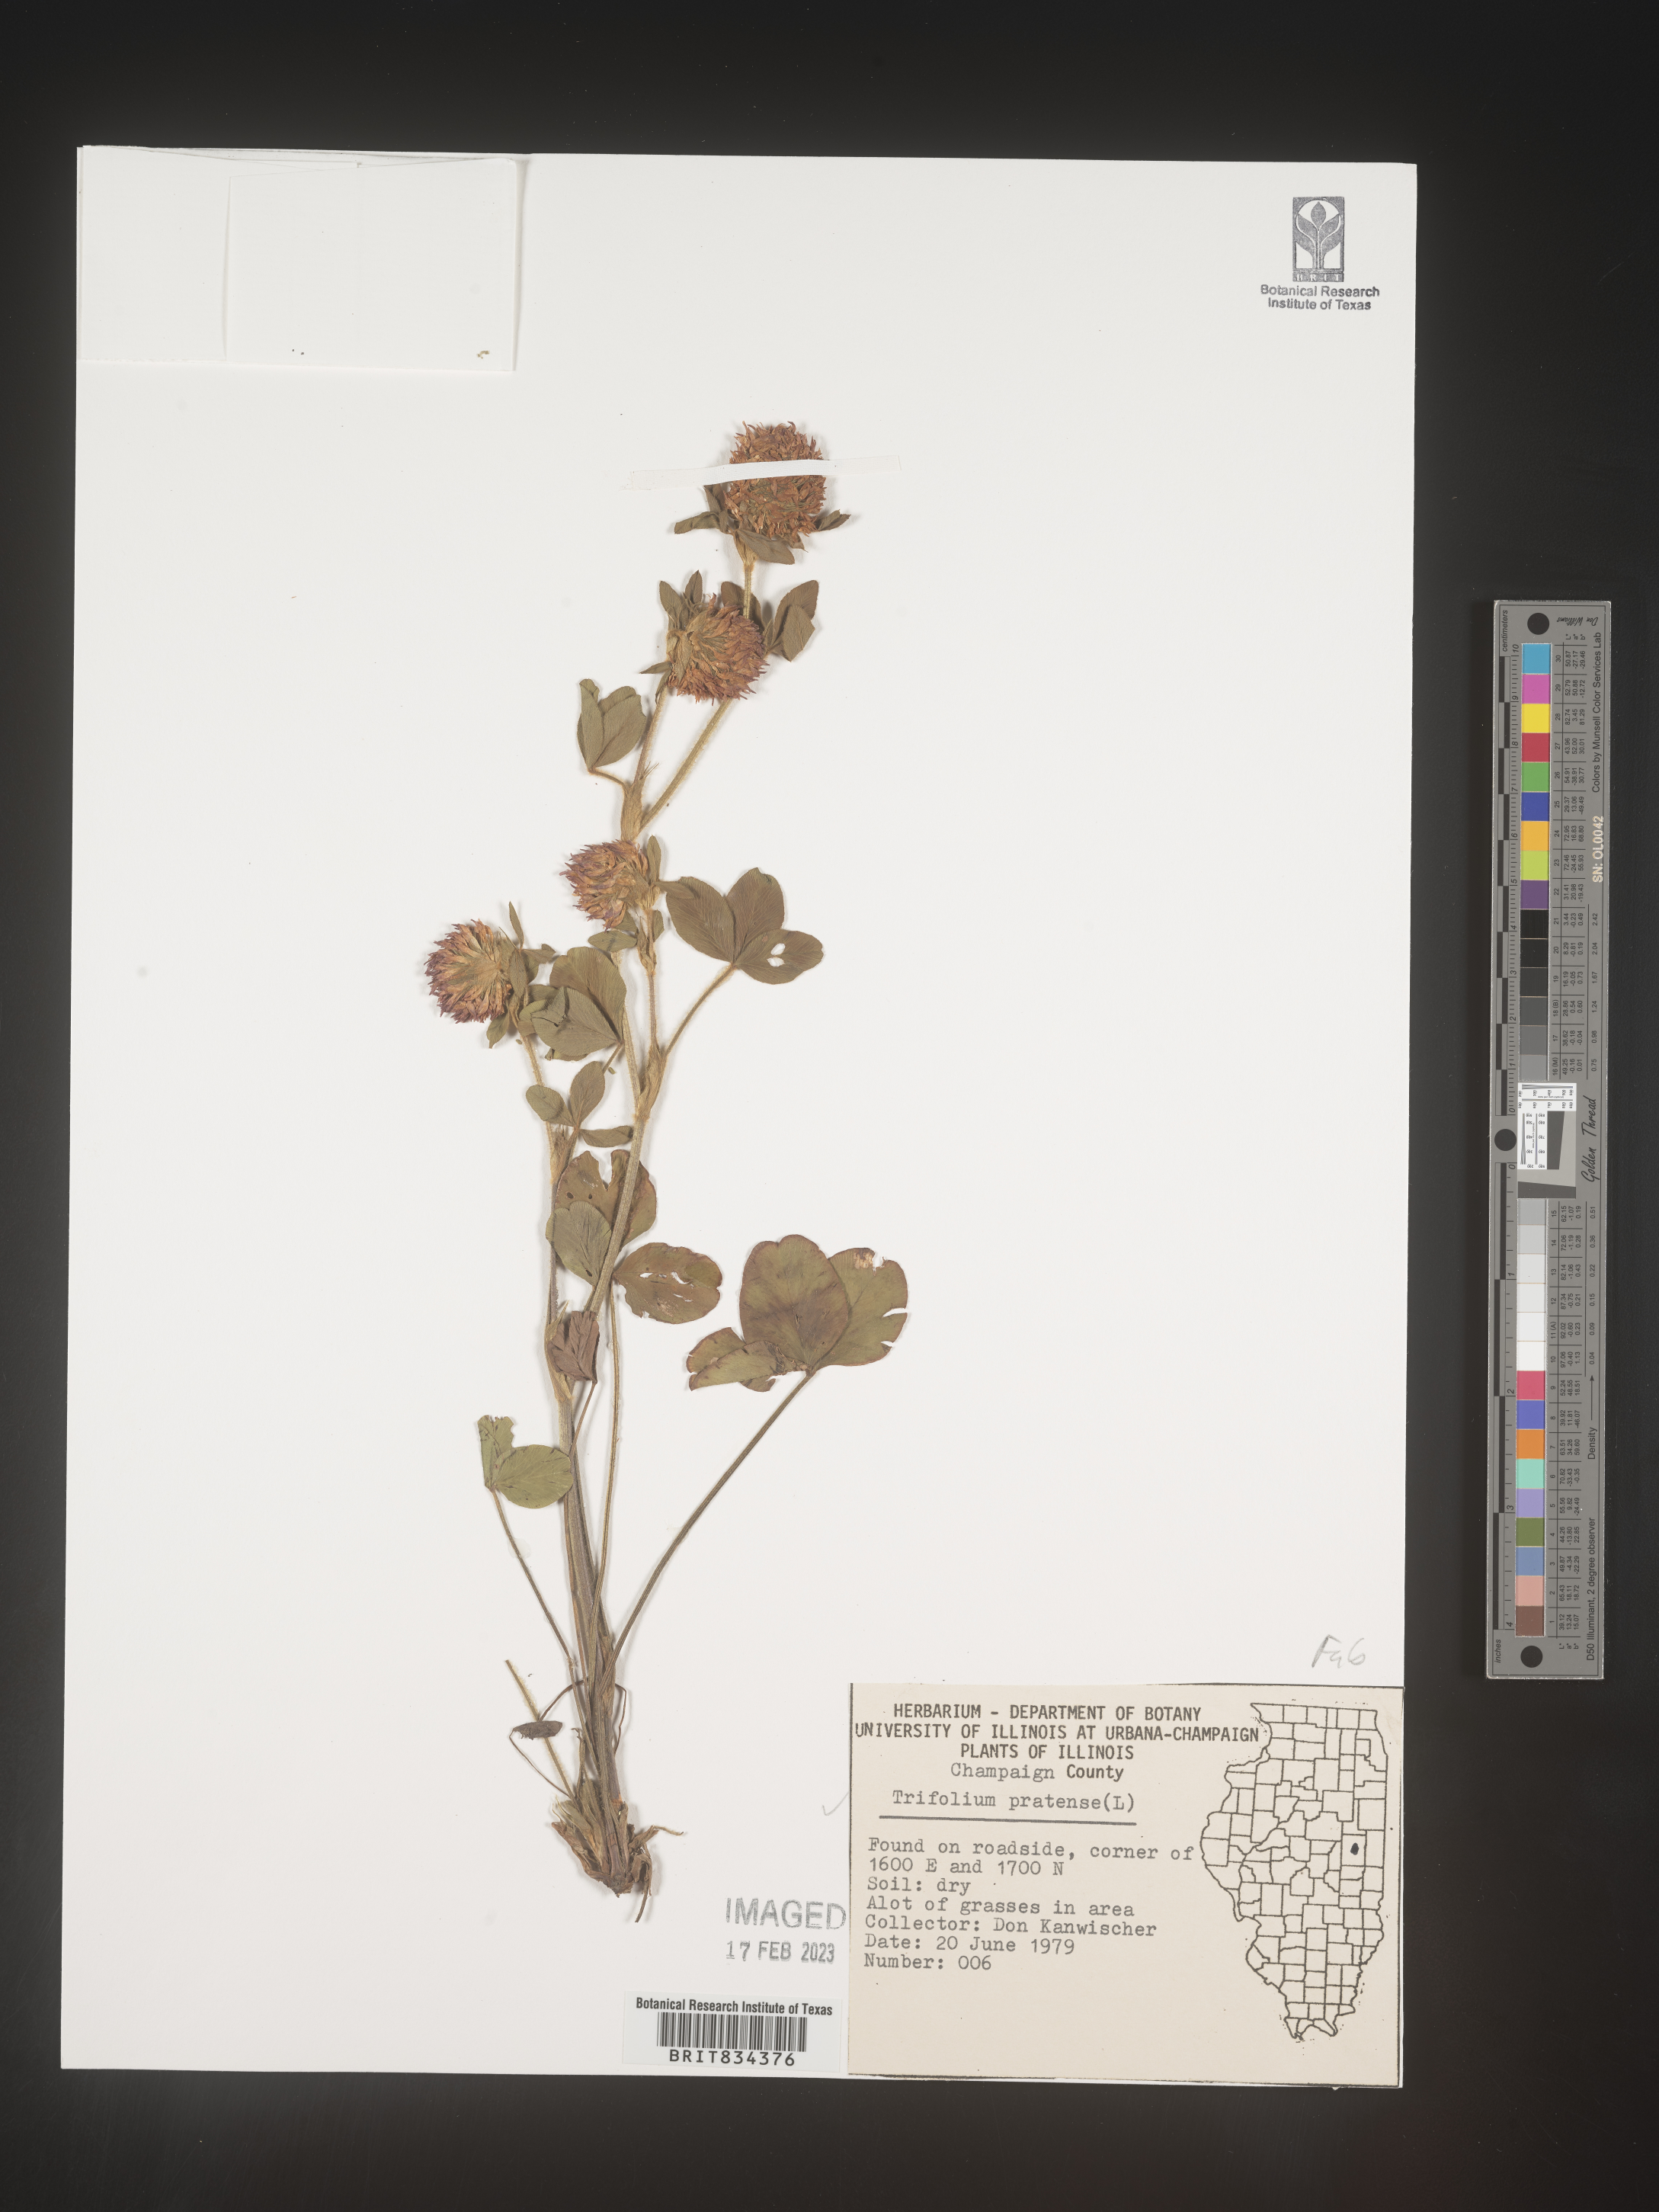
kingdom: Plantae
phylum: Tracheophyta
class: Magnoliopsida
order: Fabales
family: Fabaceae
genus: Trifolium
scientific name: Trifolium pratense
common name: Red clover
